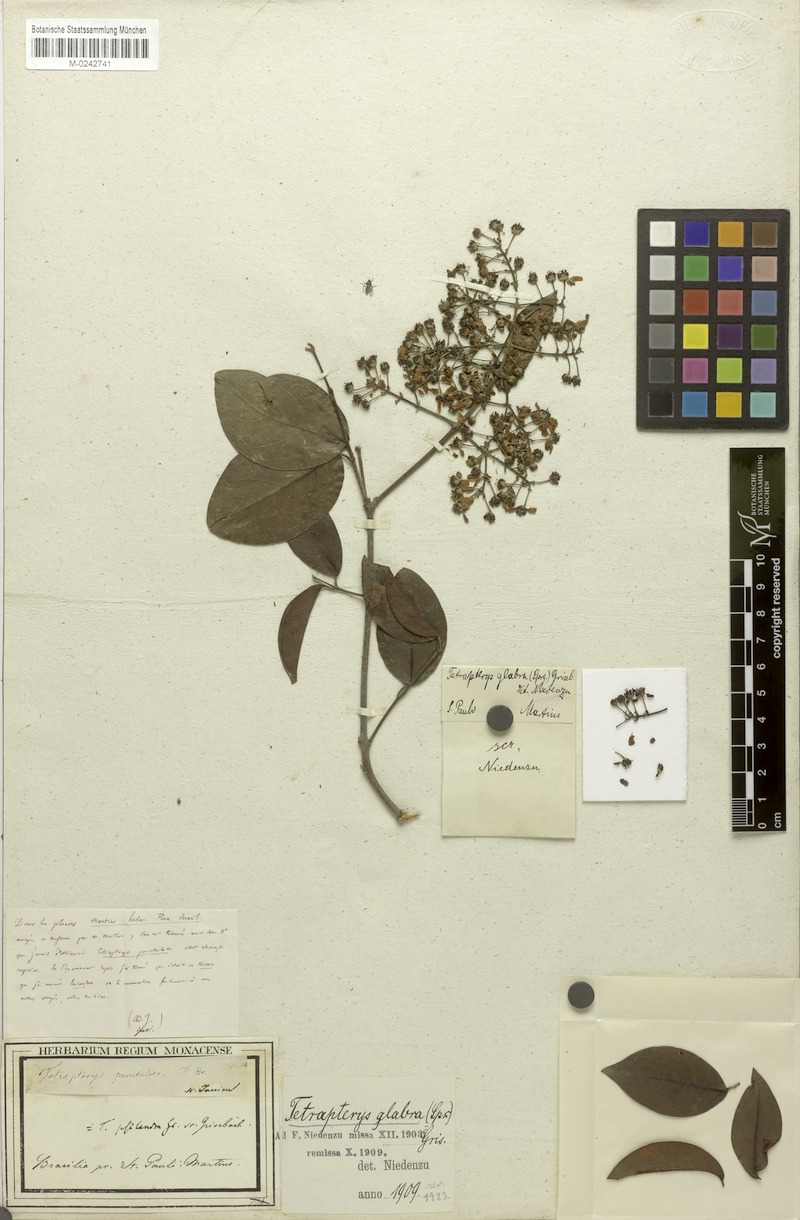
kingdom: Plantae
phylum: Tracheophyta
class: Magnoliopsida
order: Malpighiales
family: Malpighiaceae
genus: Niedenzuella
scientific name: Niedenzuella acutifolia
